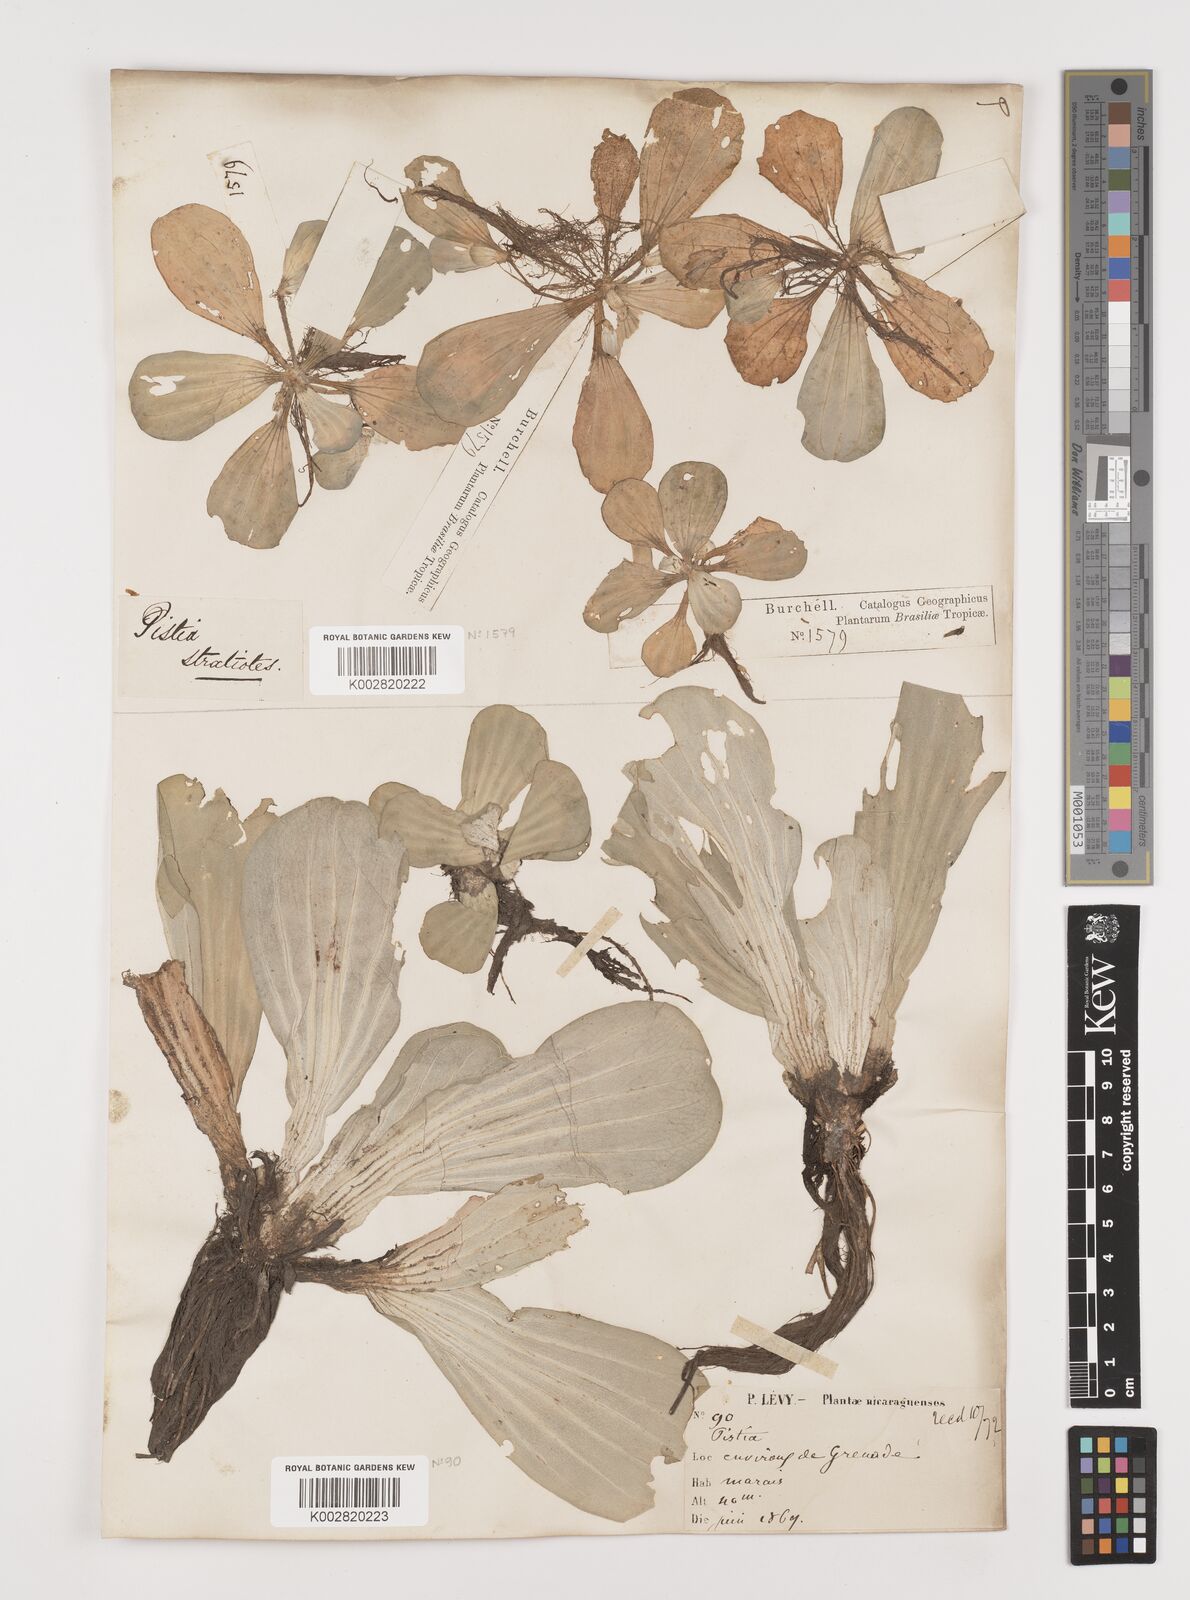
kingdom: Plantae
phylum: Tracheophyta
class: Liliopsida
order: Alismatales
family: Araceae
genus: Pistia
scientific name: Pistia stratiotes
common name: Water lettuce
